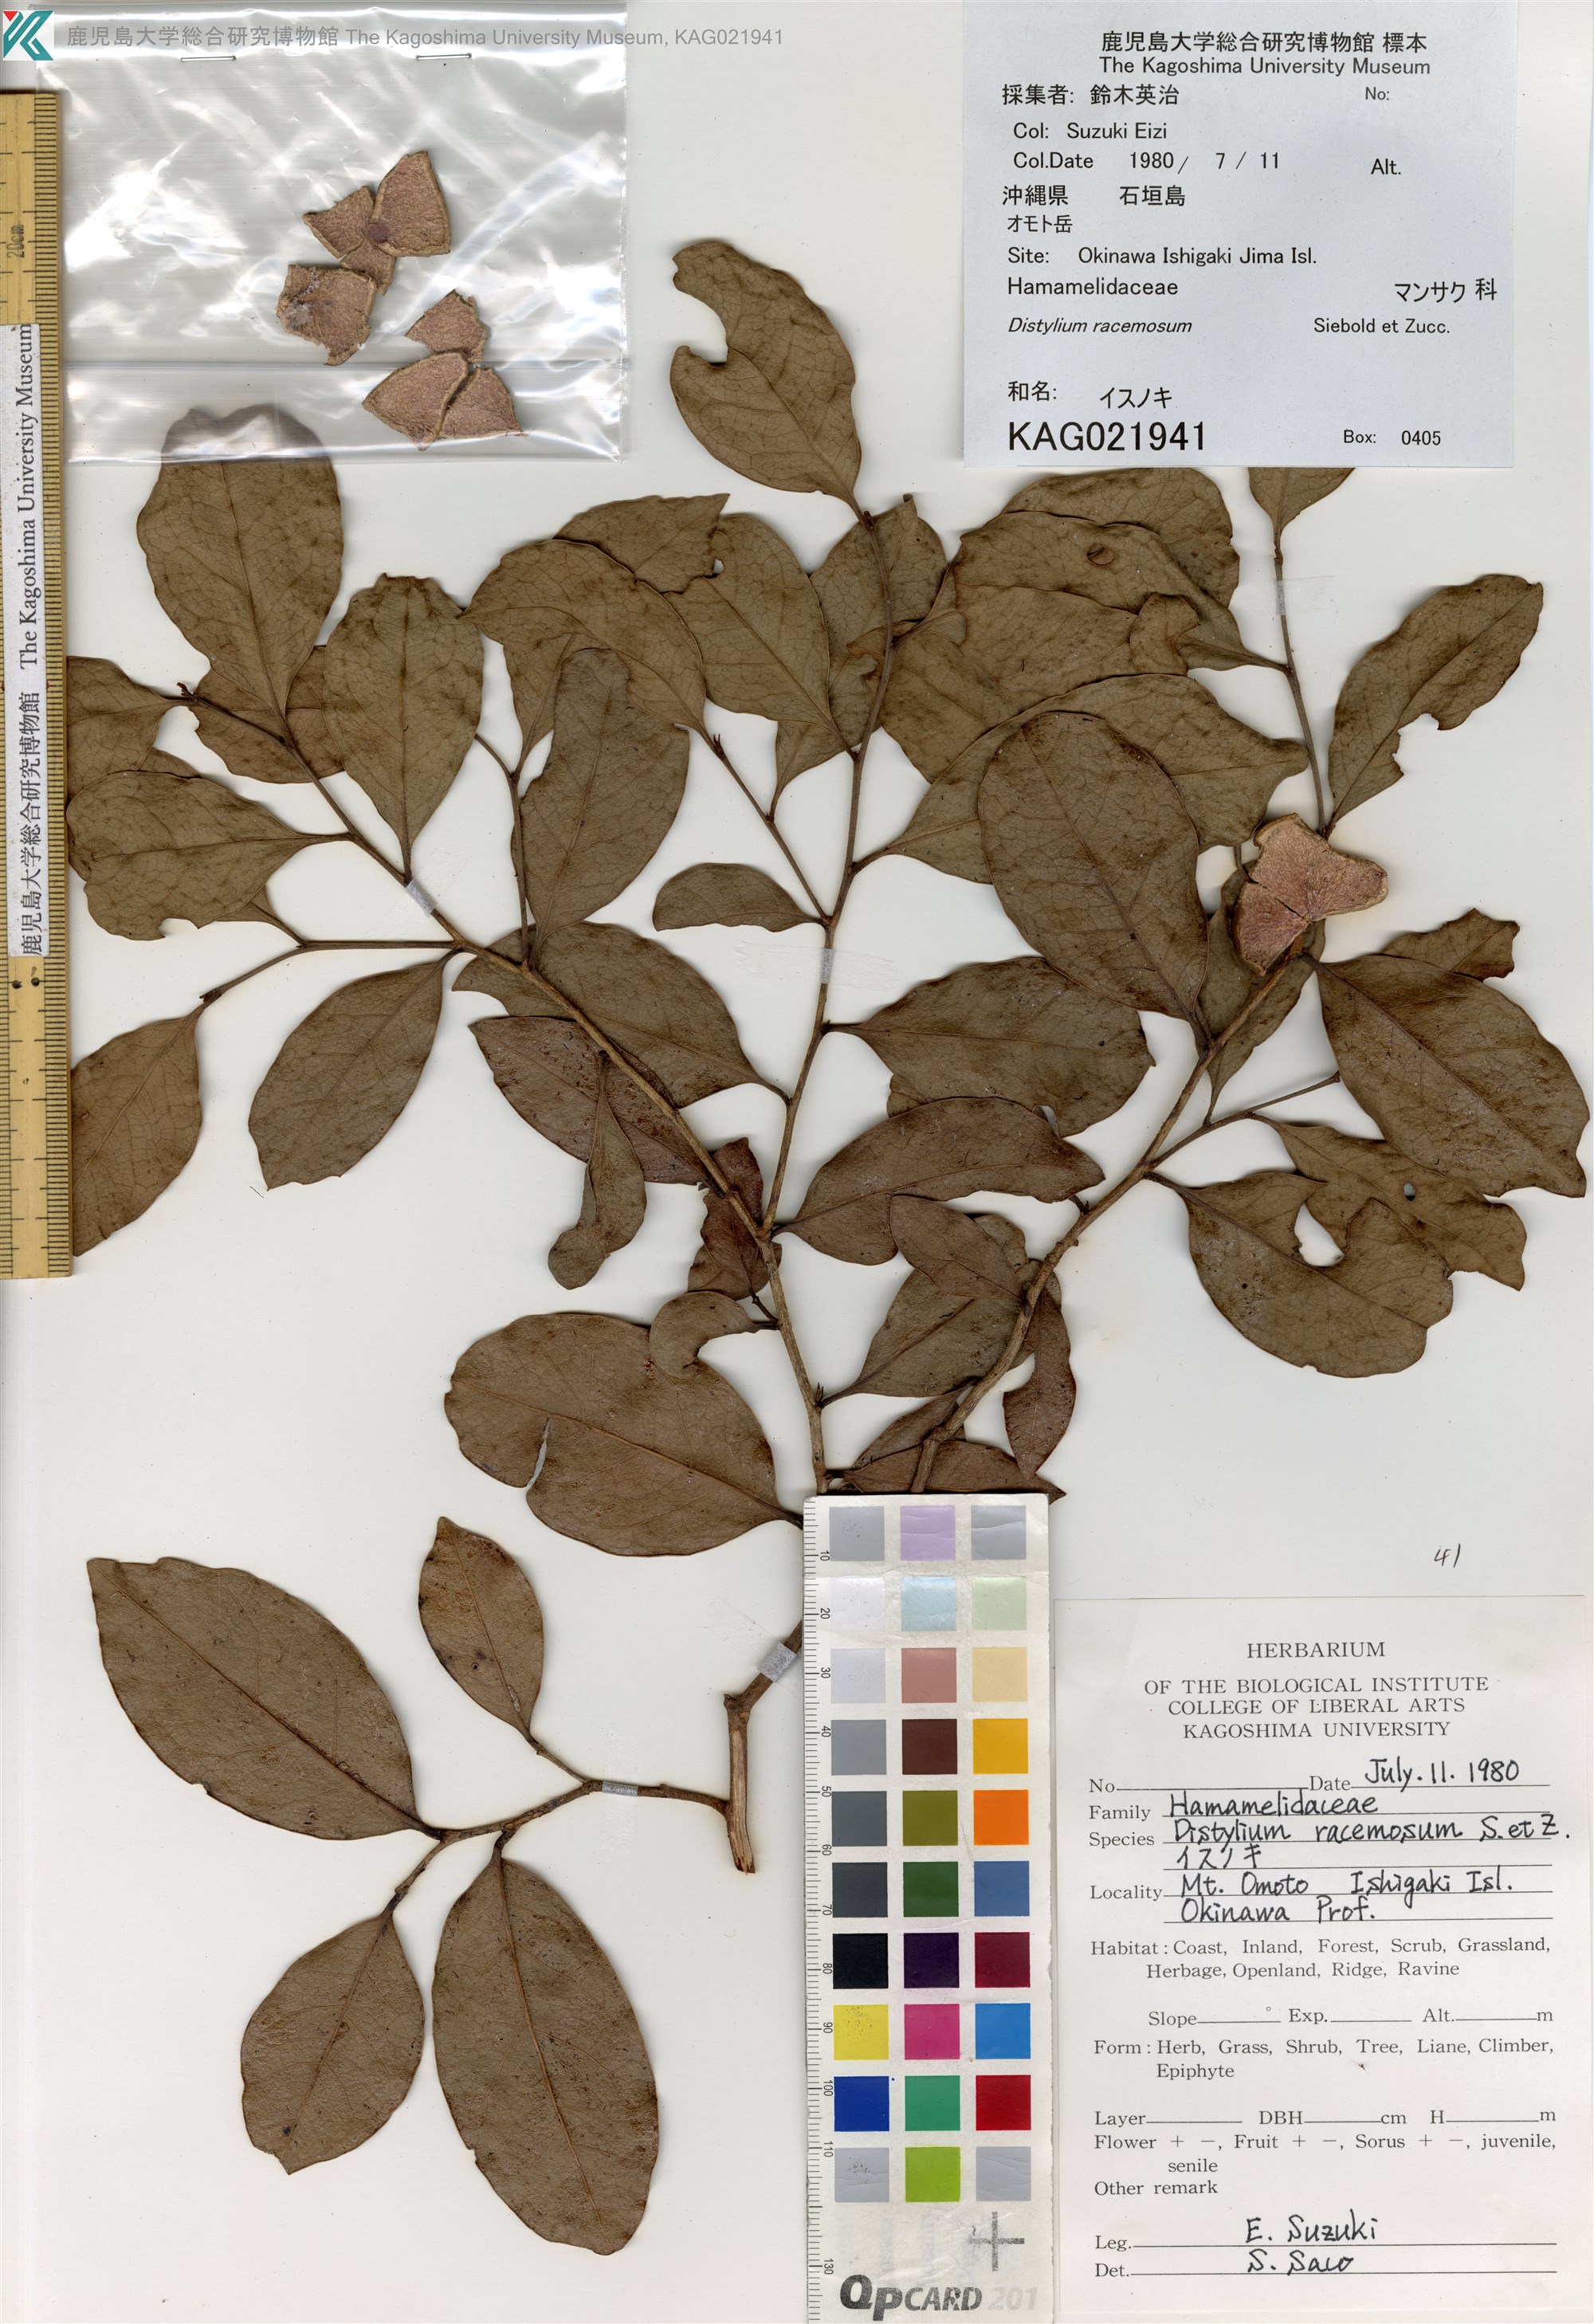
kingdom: Plantae
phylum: Tracheophyta
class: Magnoliopsida
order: Saxifragales
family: Hamamelidaceae
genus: Distylium
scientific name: Distylium racemosum
